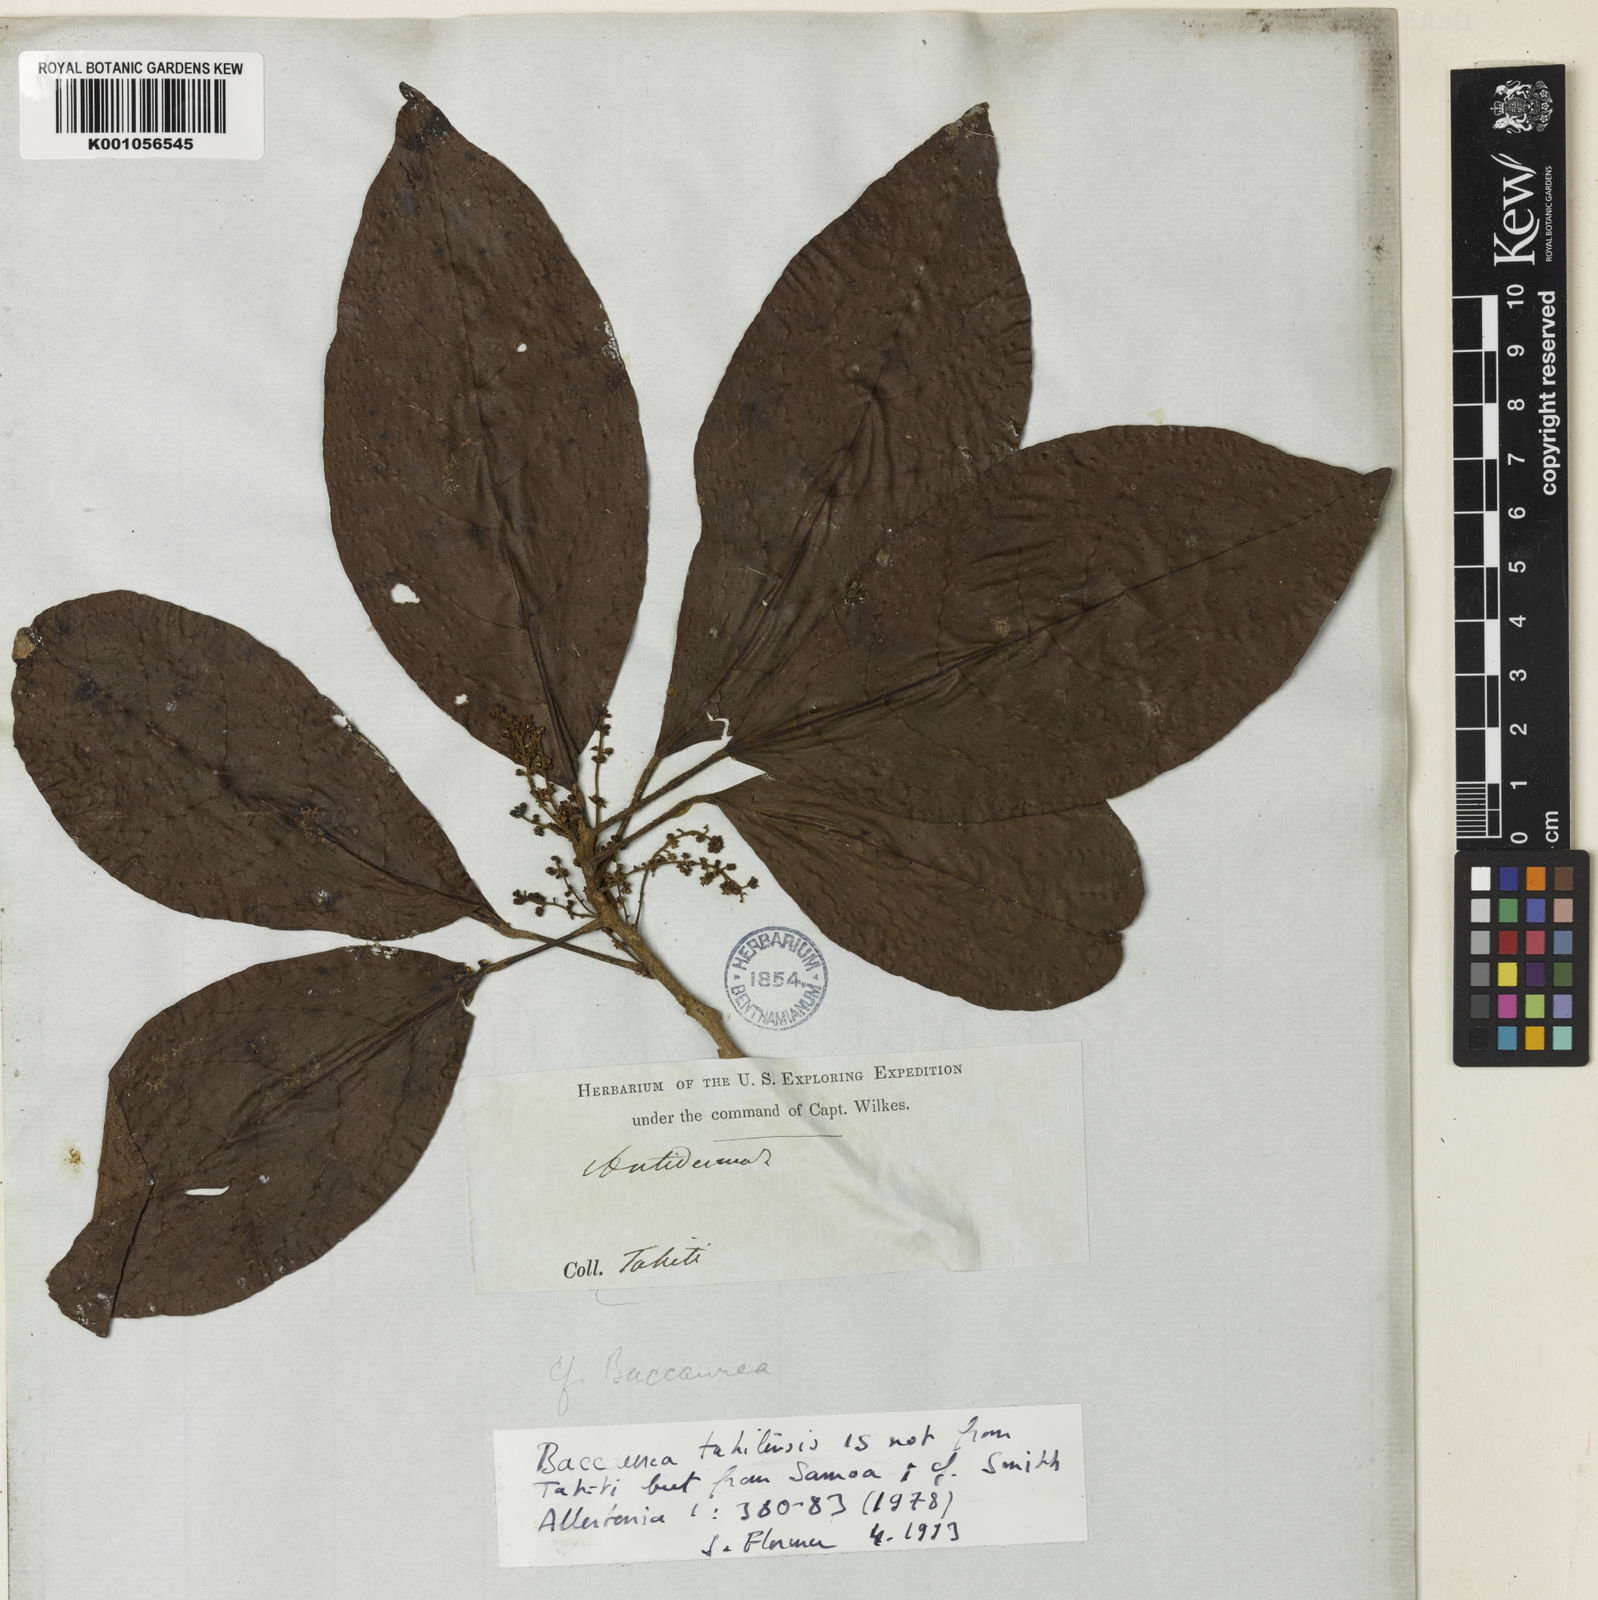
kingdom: Plantae
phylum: Tracheophyta
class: Magnoliopsida
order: Malpighiales
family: Phyllanthaceae
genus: Baccaurea
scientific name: Baccaurea
